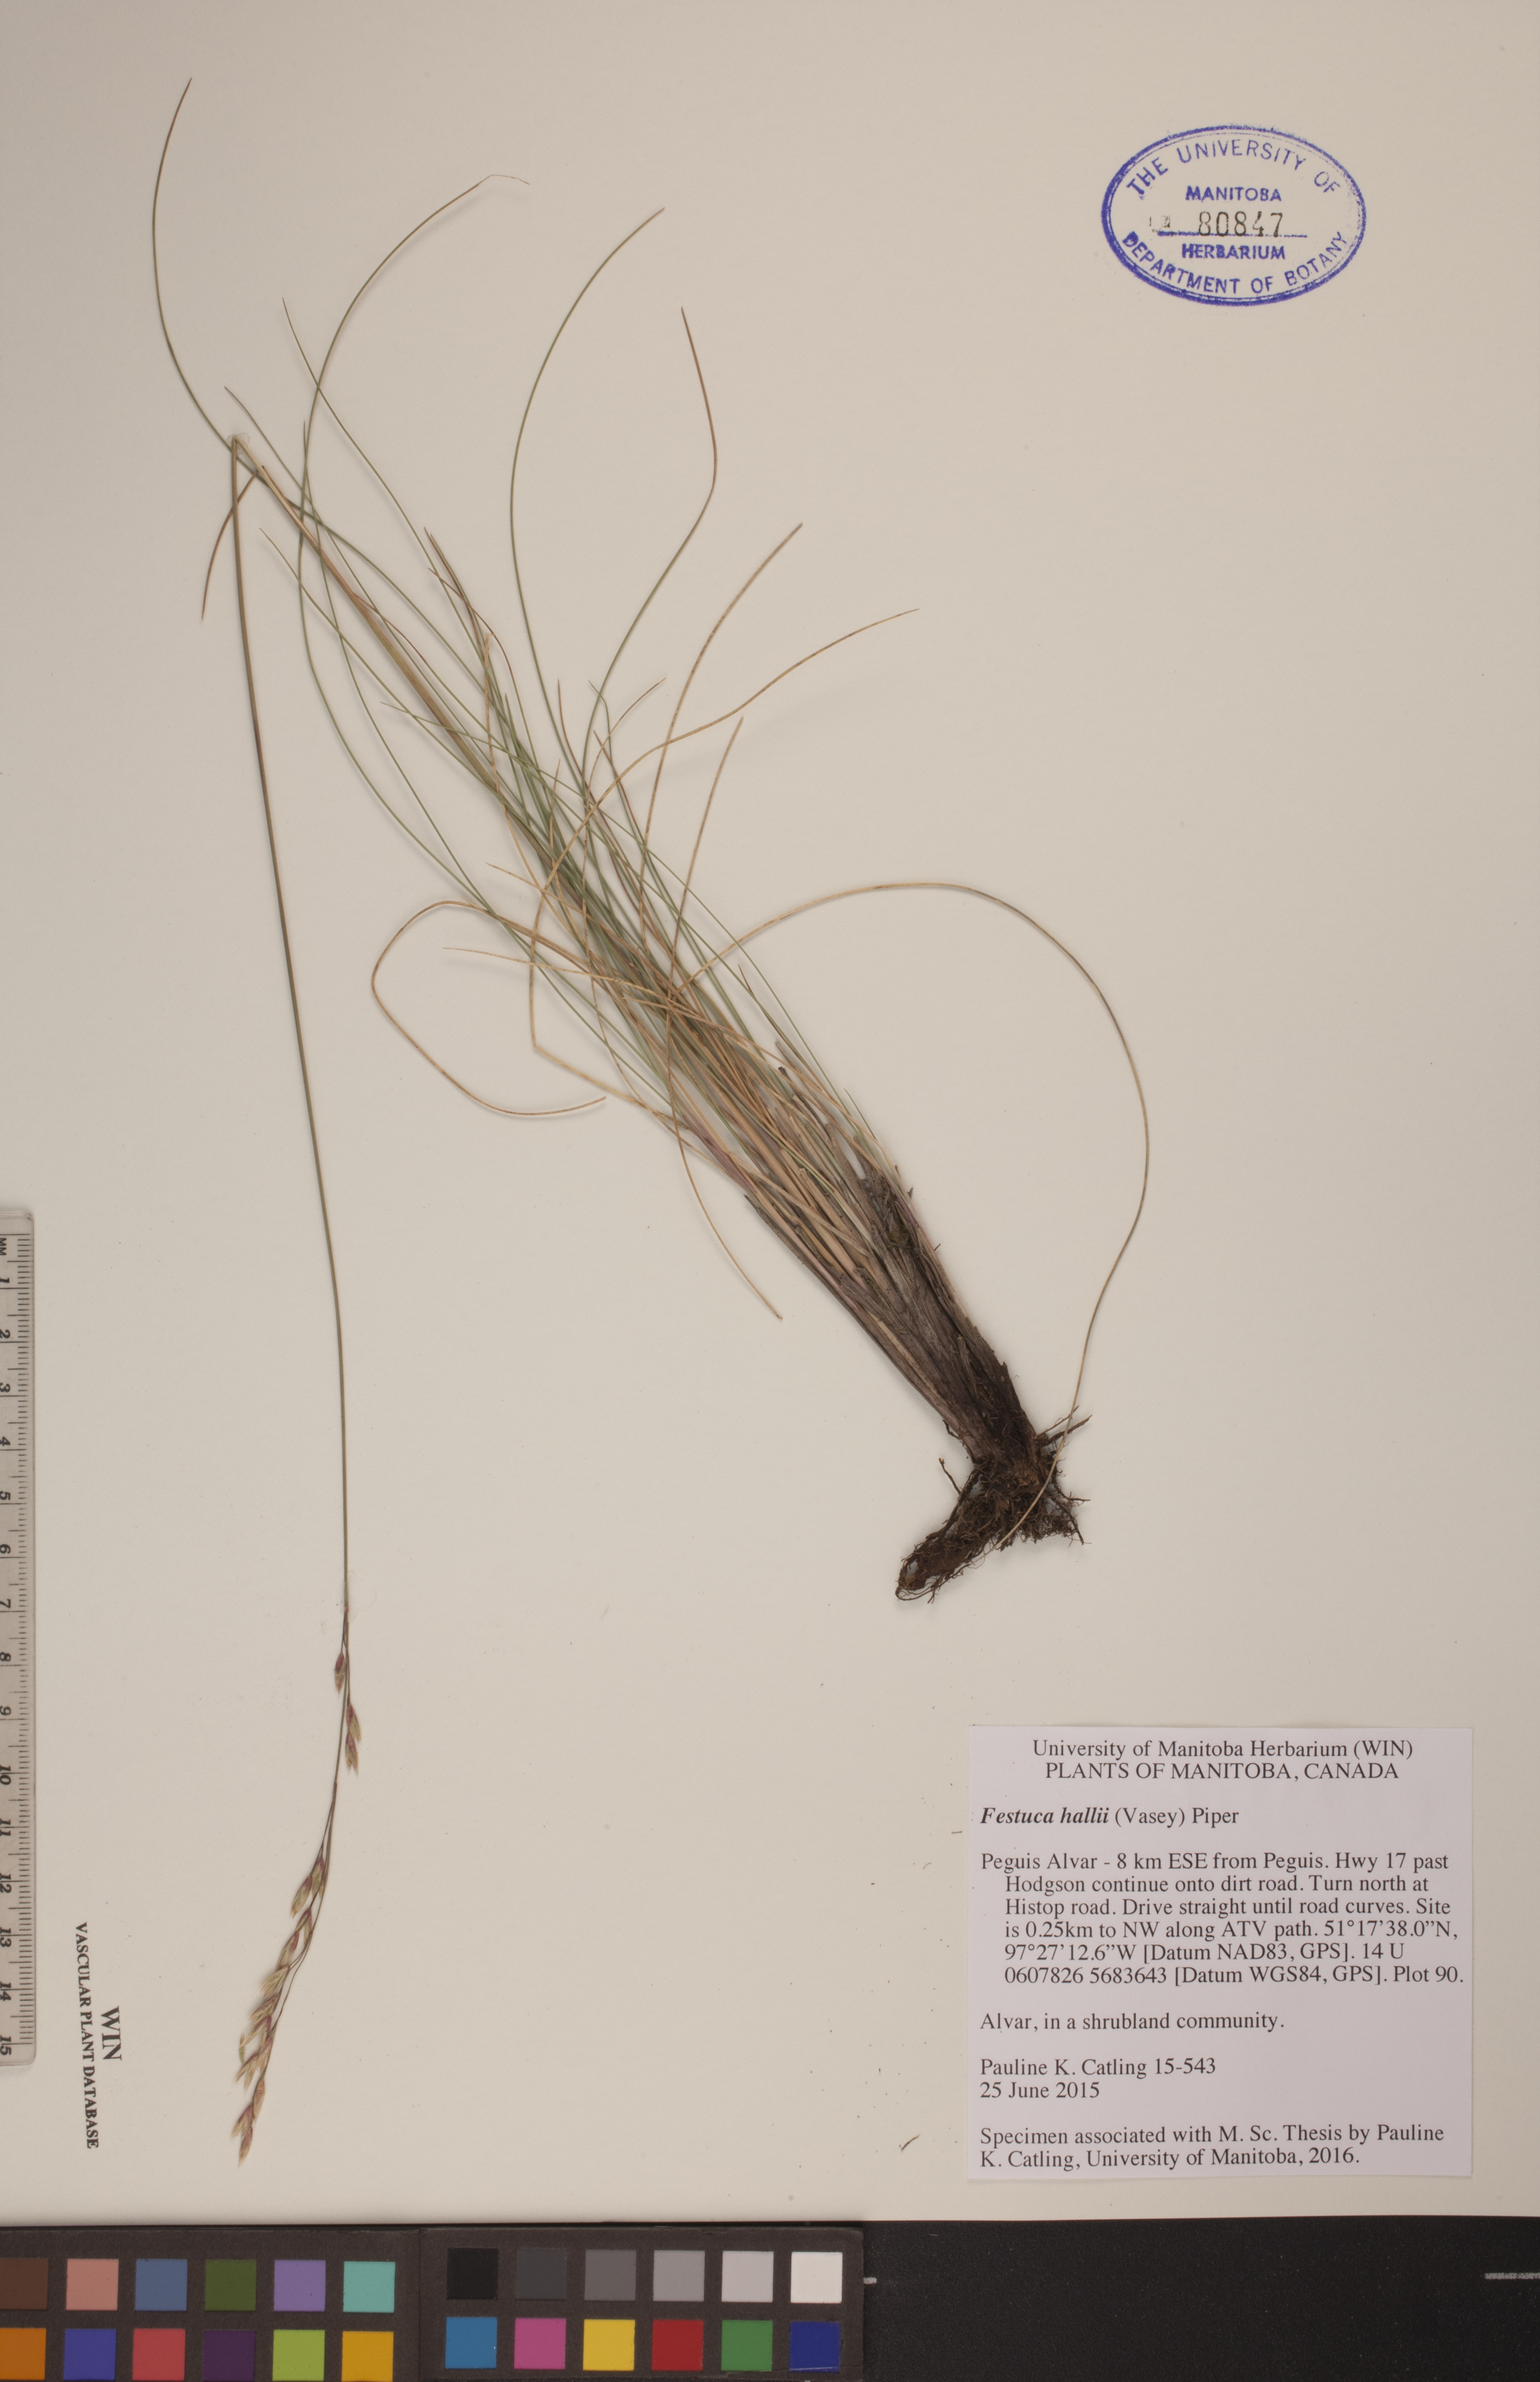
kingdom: Plantae
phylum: Tracheophyta
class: Liliopsida
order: Poales
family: Poaceae
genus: Festuca
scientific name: Festuca hallii
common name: Hall's fescue
